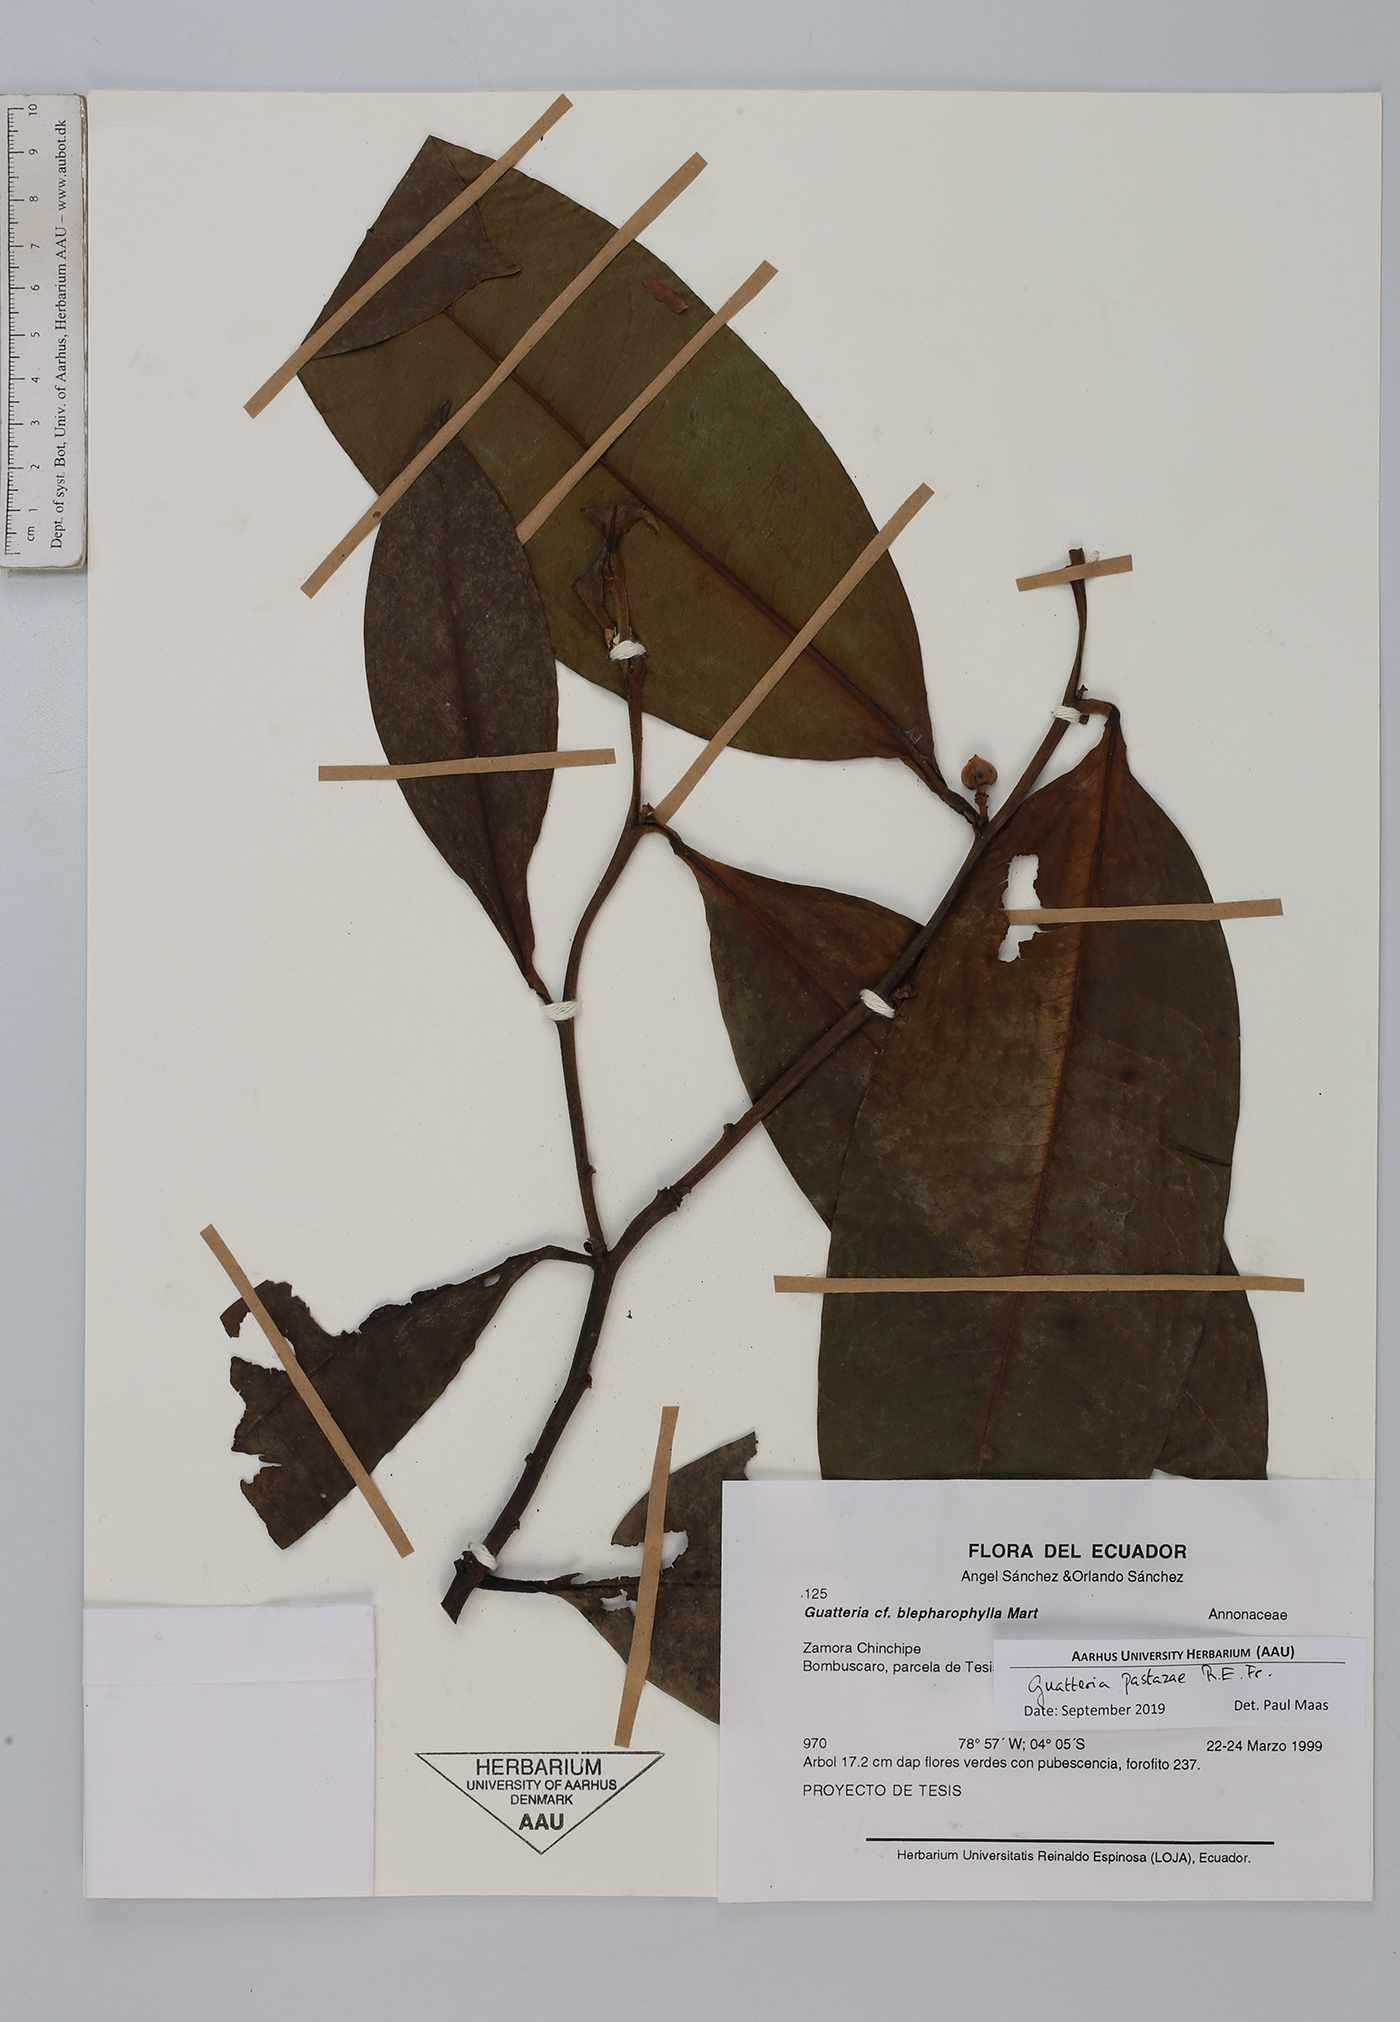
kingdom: Plantae
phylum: Tracheophyta
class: Magnoliopsida
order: Magnoliales
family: Annonaceae
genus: Guatteria
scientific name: Guatteria pastazae
